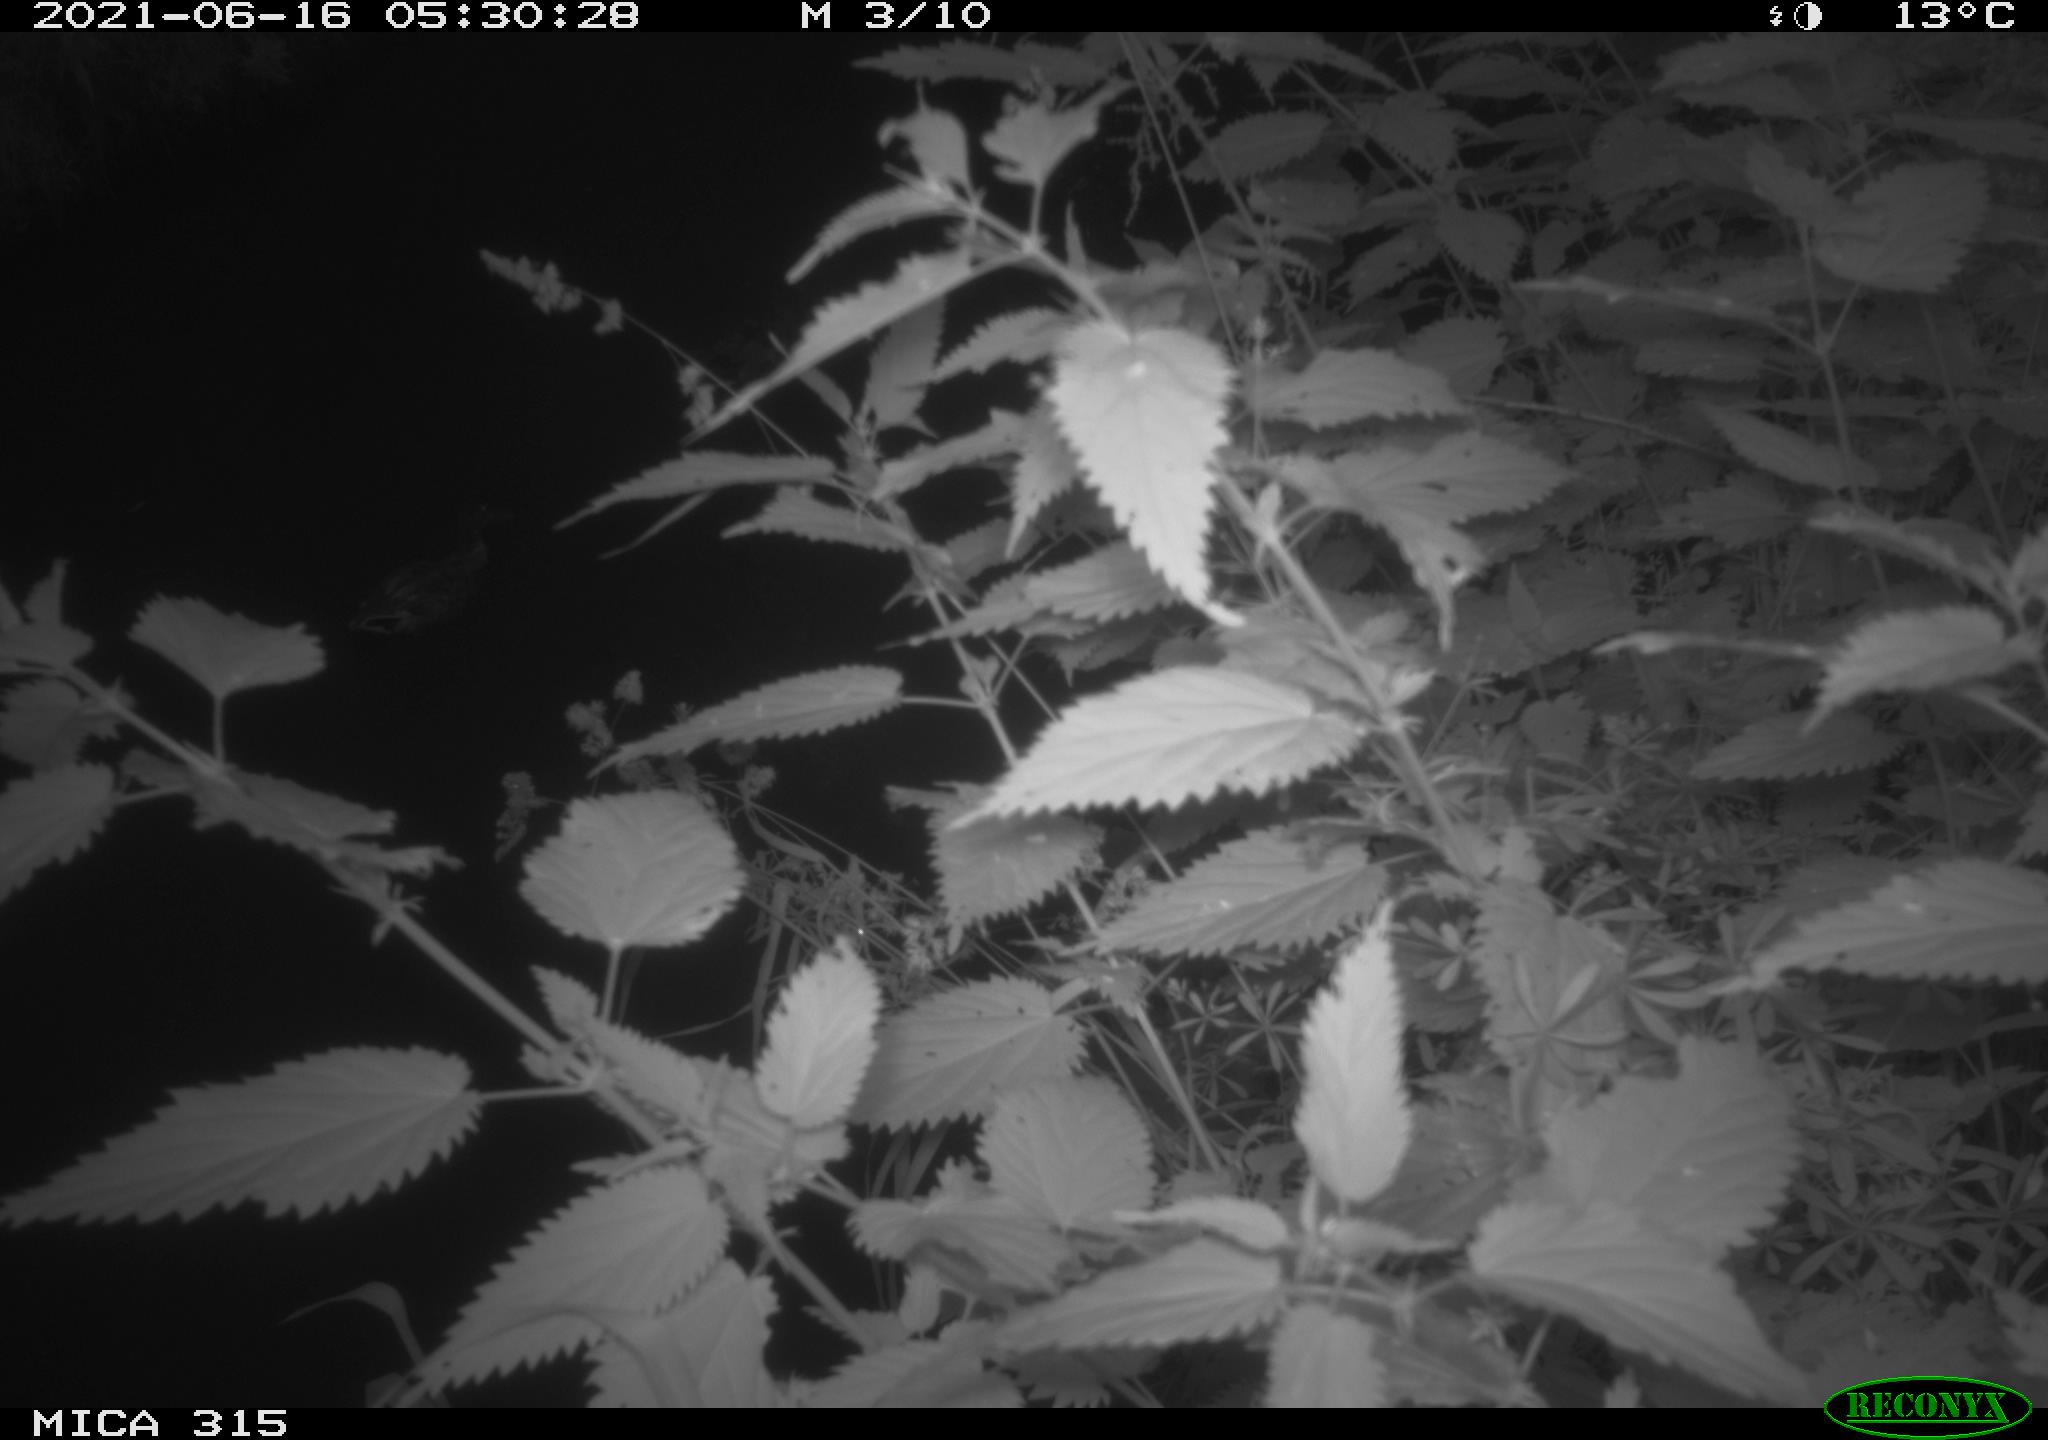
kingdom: Animalia
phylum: Chordata
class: Aves
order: Anseriformes
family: Anatidae
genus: Anas
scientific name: Anas platyrhynchos
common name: Mallard
